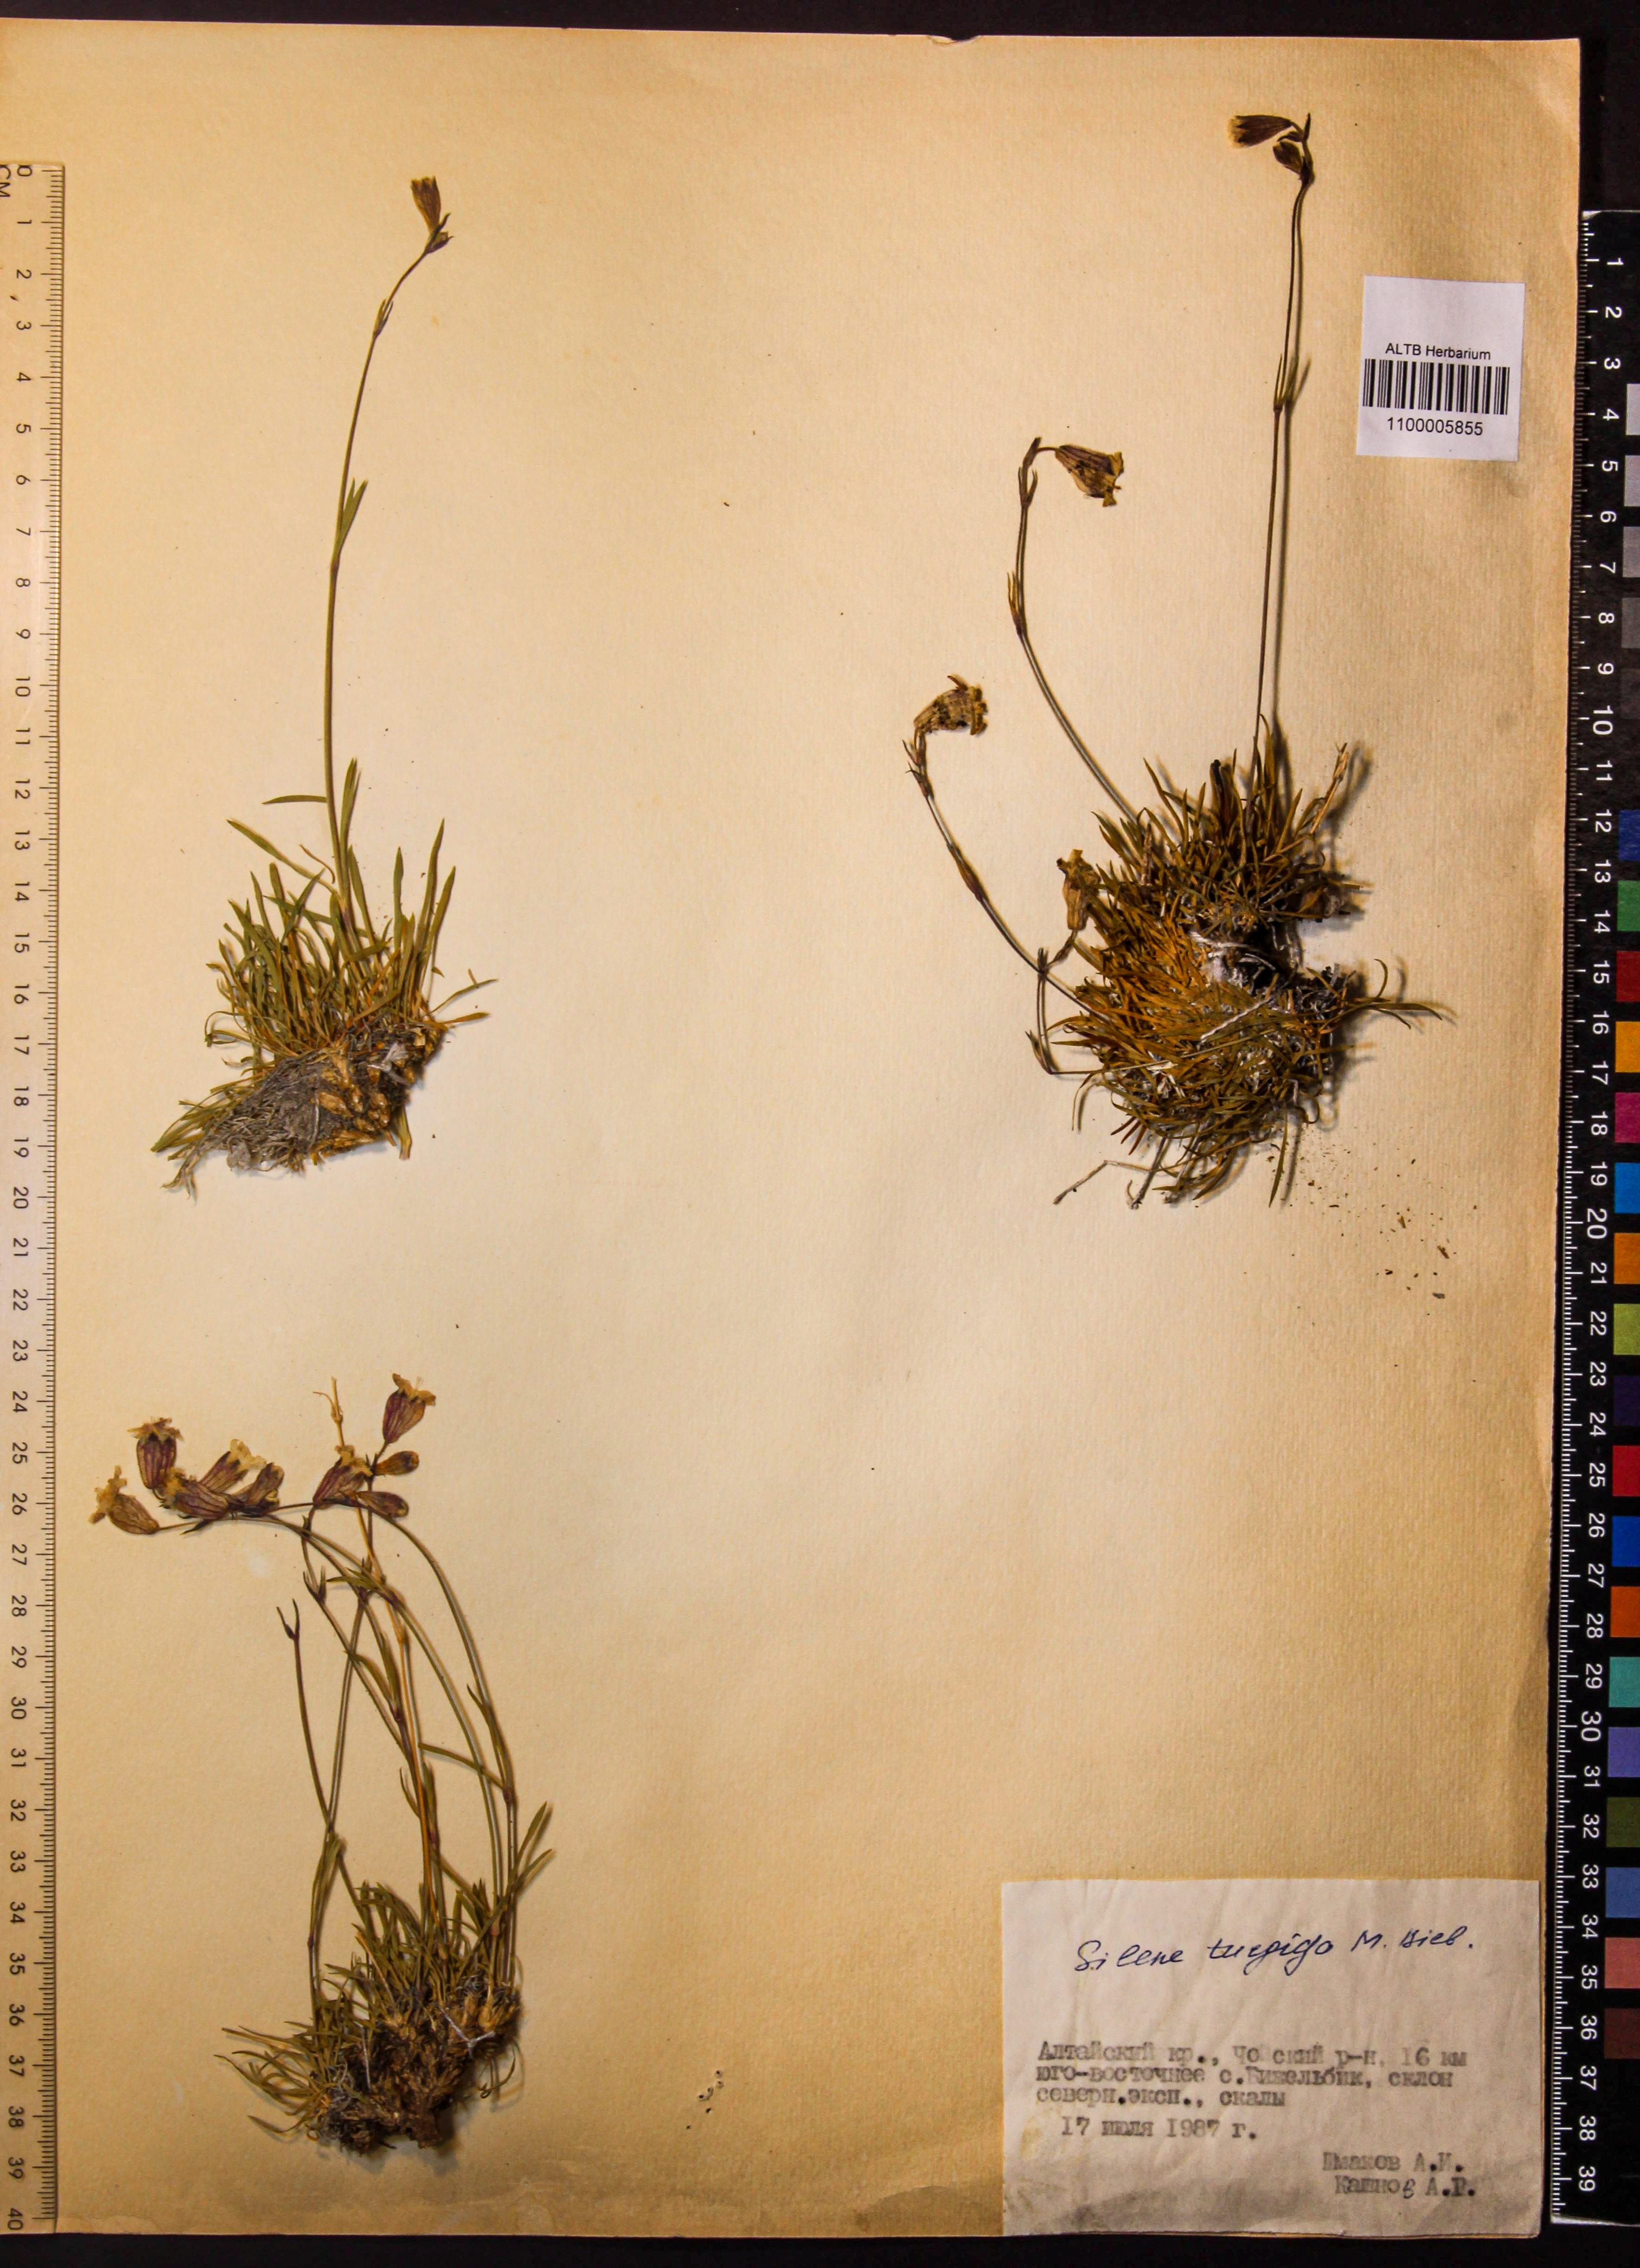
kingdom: Plantae
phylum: Tracheophyta
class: Magnoliopsida
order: Caryophyllales
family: Caryophyllaceae
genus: Silene
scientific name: Silene turgida
